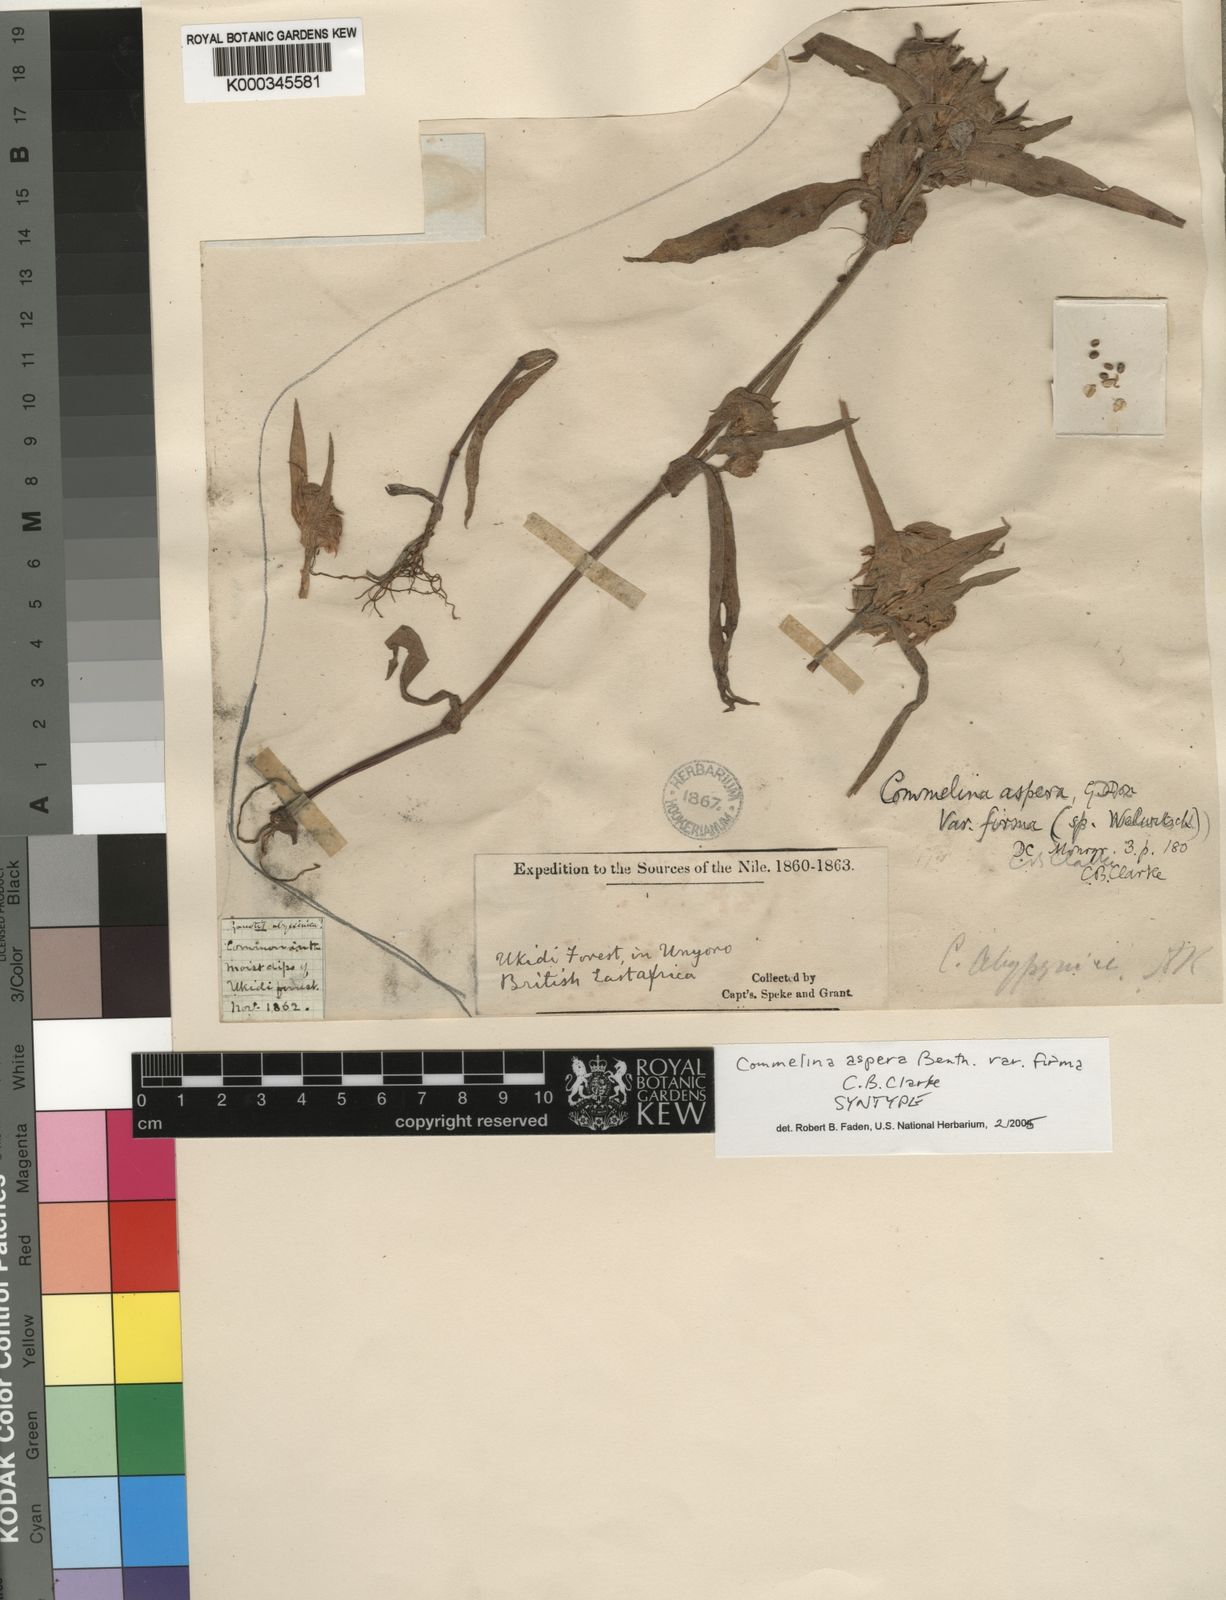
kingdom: Plantae
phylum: Tracheophyta
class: Liliopsida
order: Commelinales
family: Commelinaceae
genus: Commelina
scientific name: Commelina
